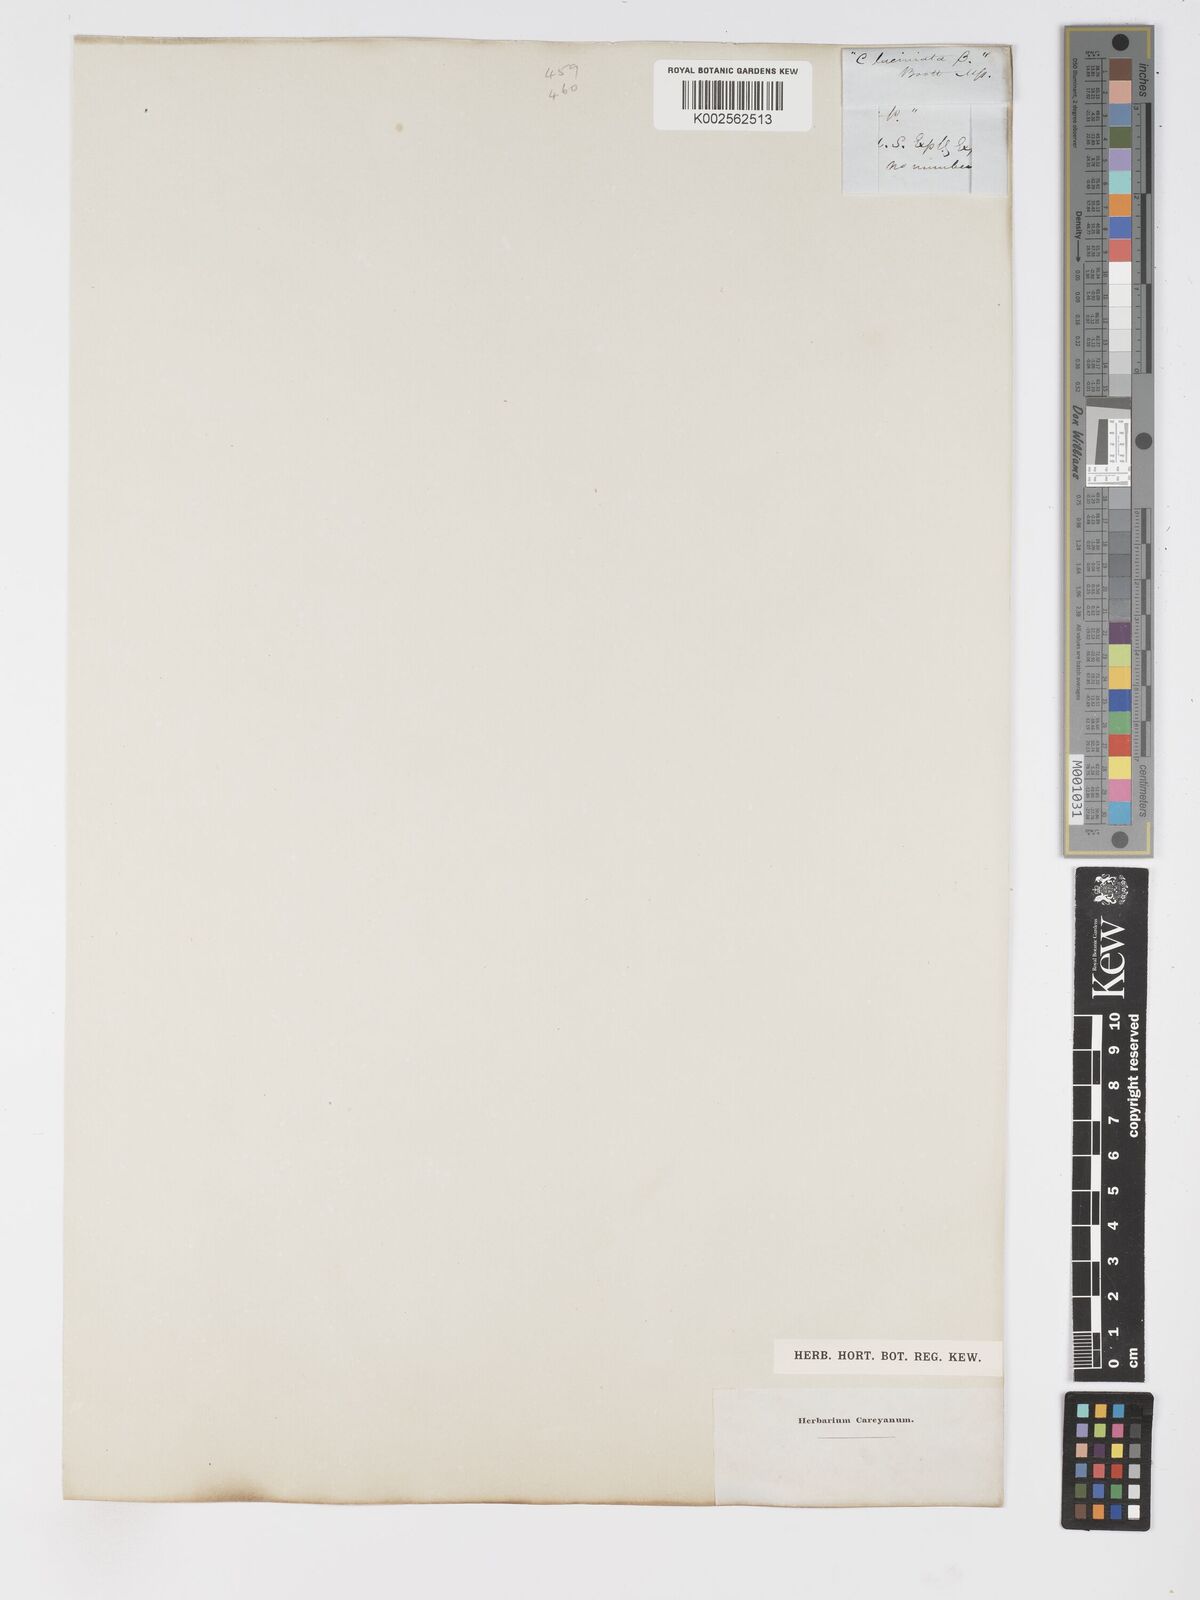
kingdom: Plantae
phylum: Tracheophyta
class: Liliopsida
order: Poales
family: Cyperaceae
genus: Carex
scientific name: Carex barbarae
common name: Santa barbara sedge
